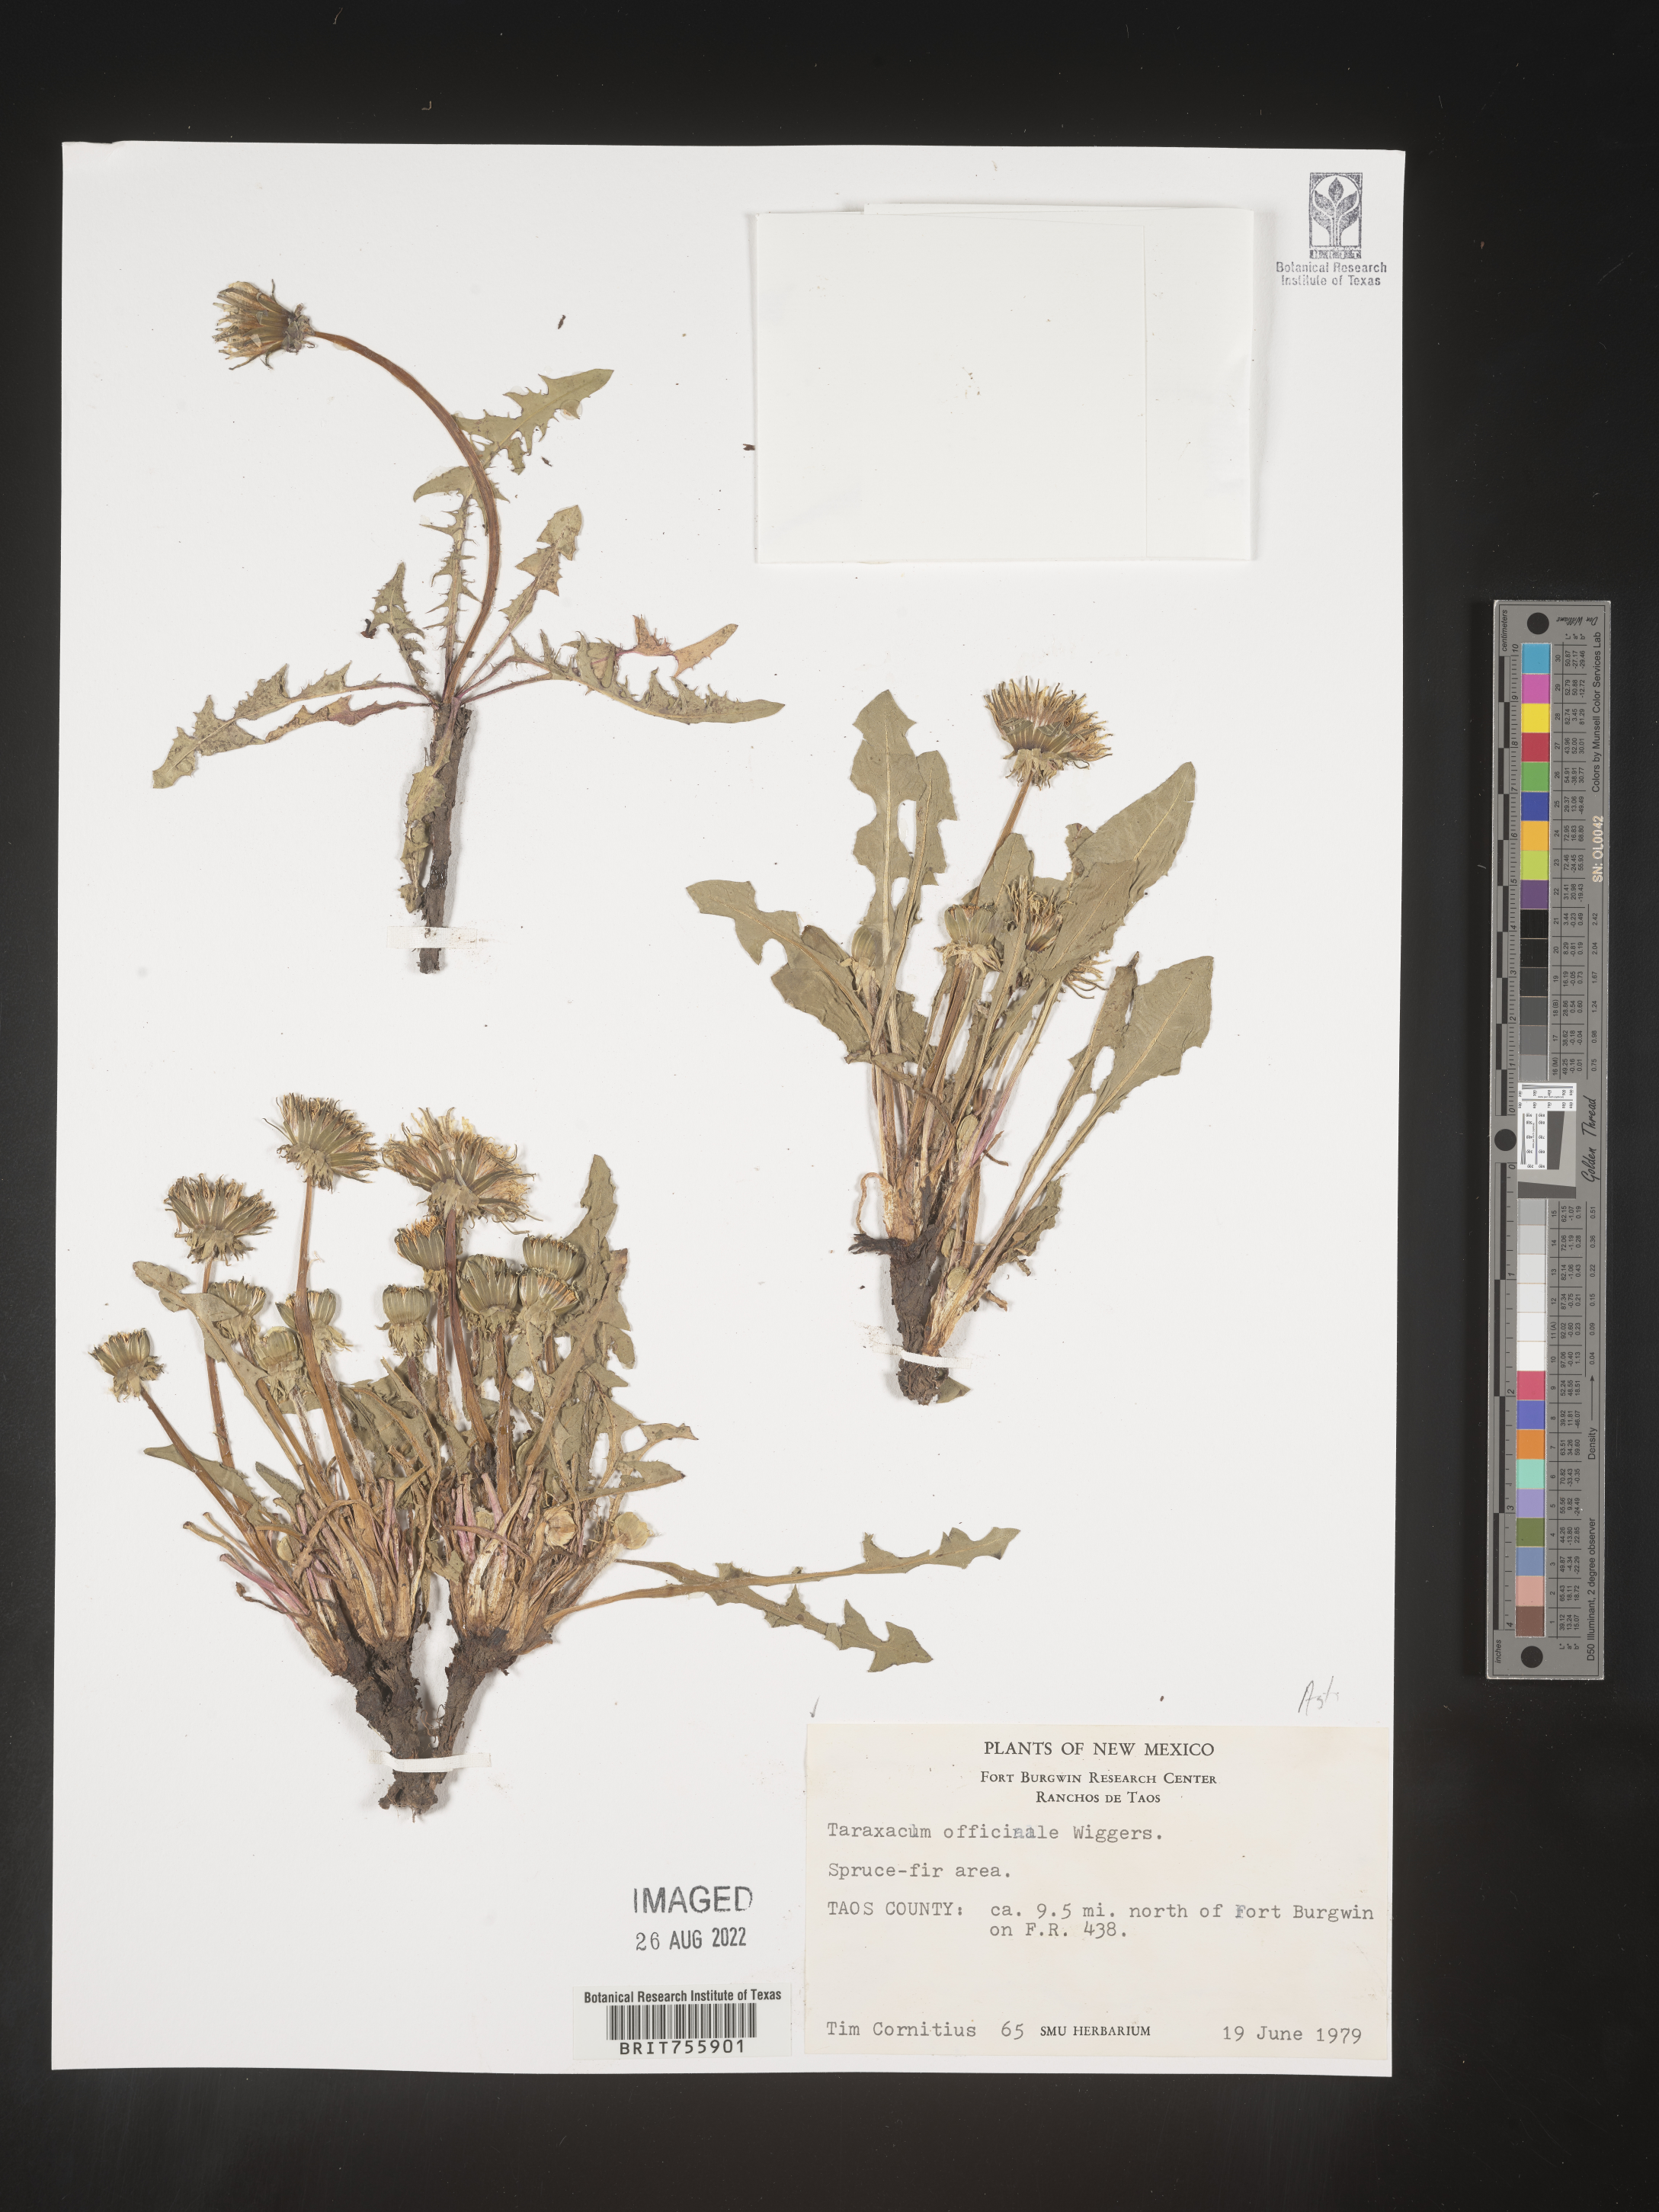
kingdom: Plantae
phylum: Tracheophyta
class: Magnoliopsida
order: Asterales
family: Asteraceae
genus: Taraxacum
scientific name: Taraxacum officinale
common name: Common dandelion
